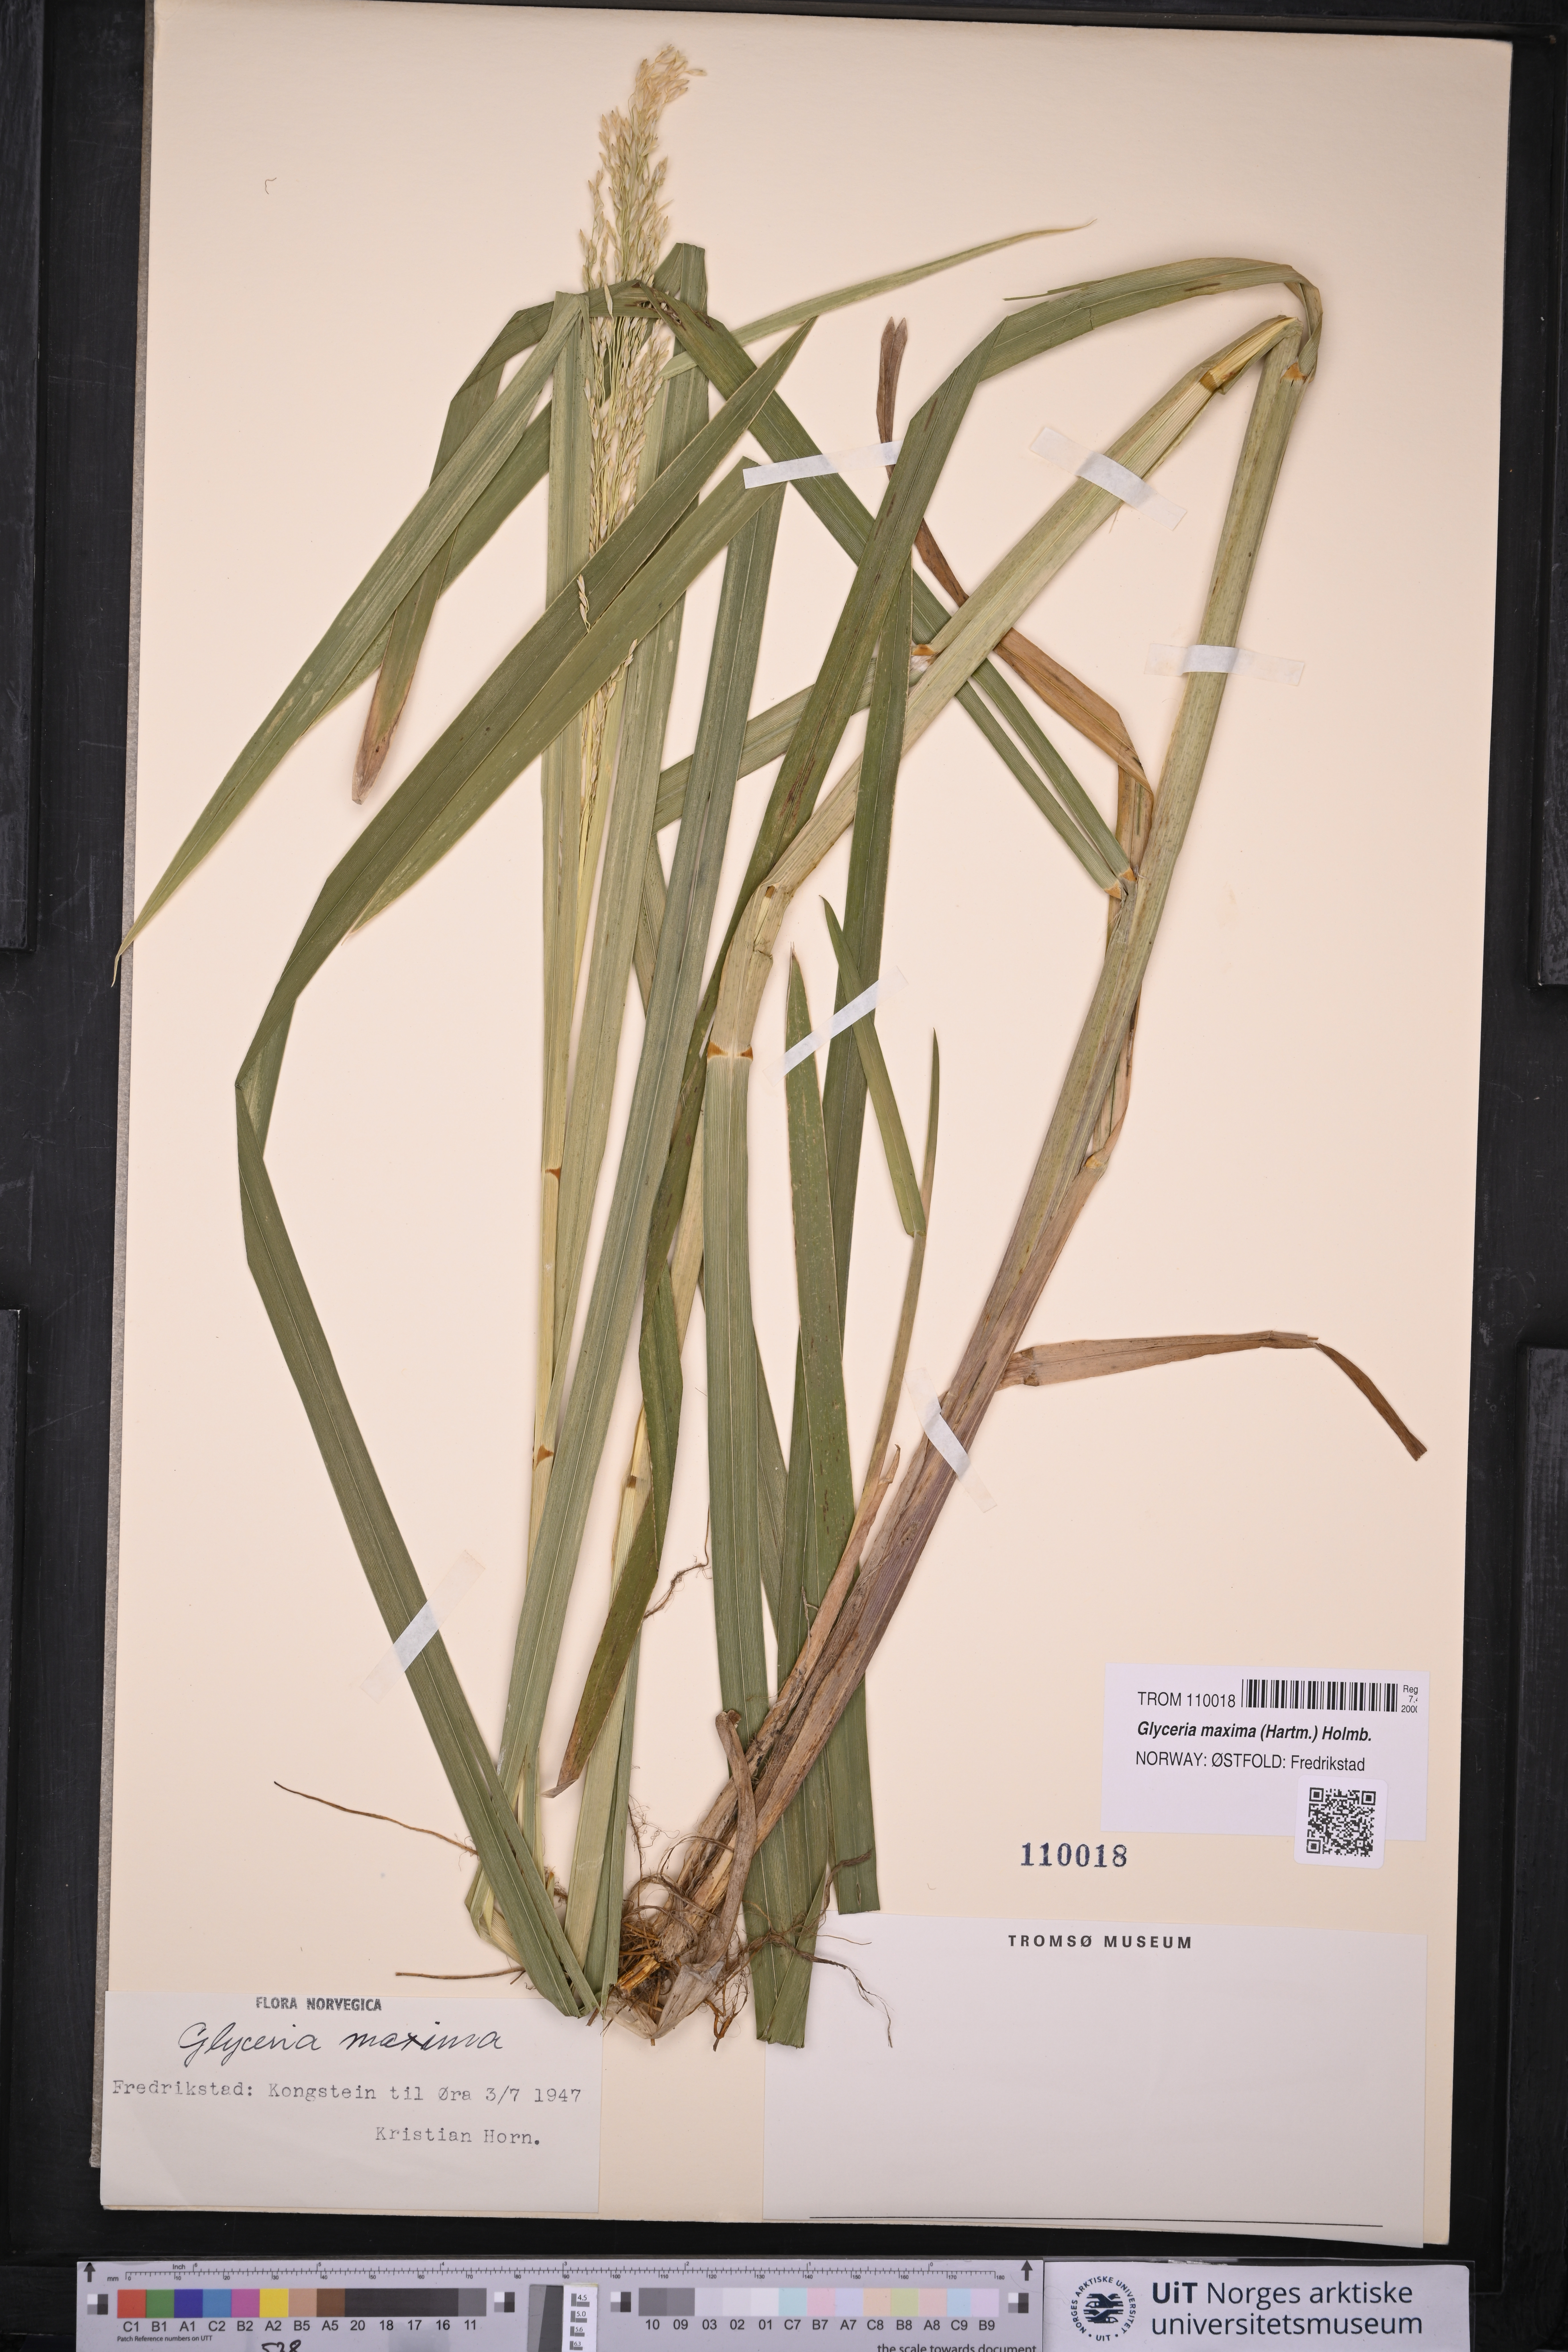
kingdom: Plantae
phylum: Tracheophyta
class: Liliopsida
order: Poales
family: Poaceae
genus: Glyceria
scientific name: Glyceria maxima
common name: Reed mannagrass
